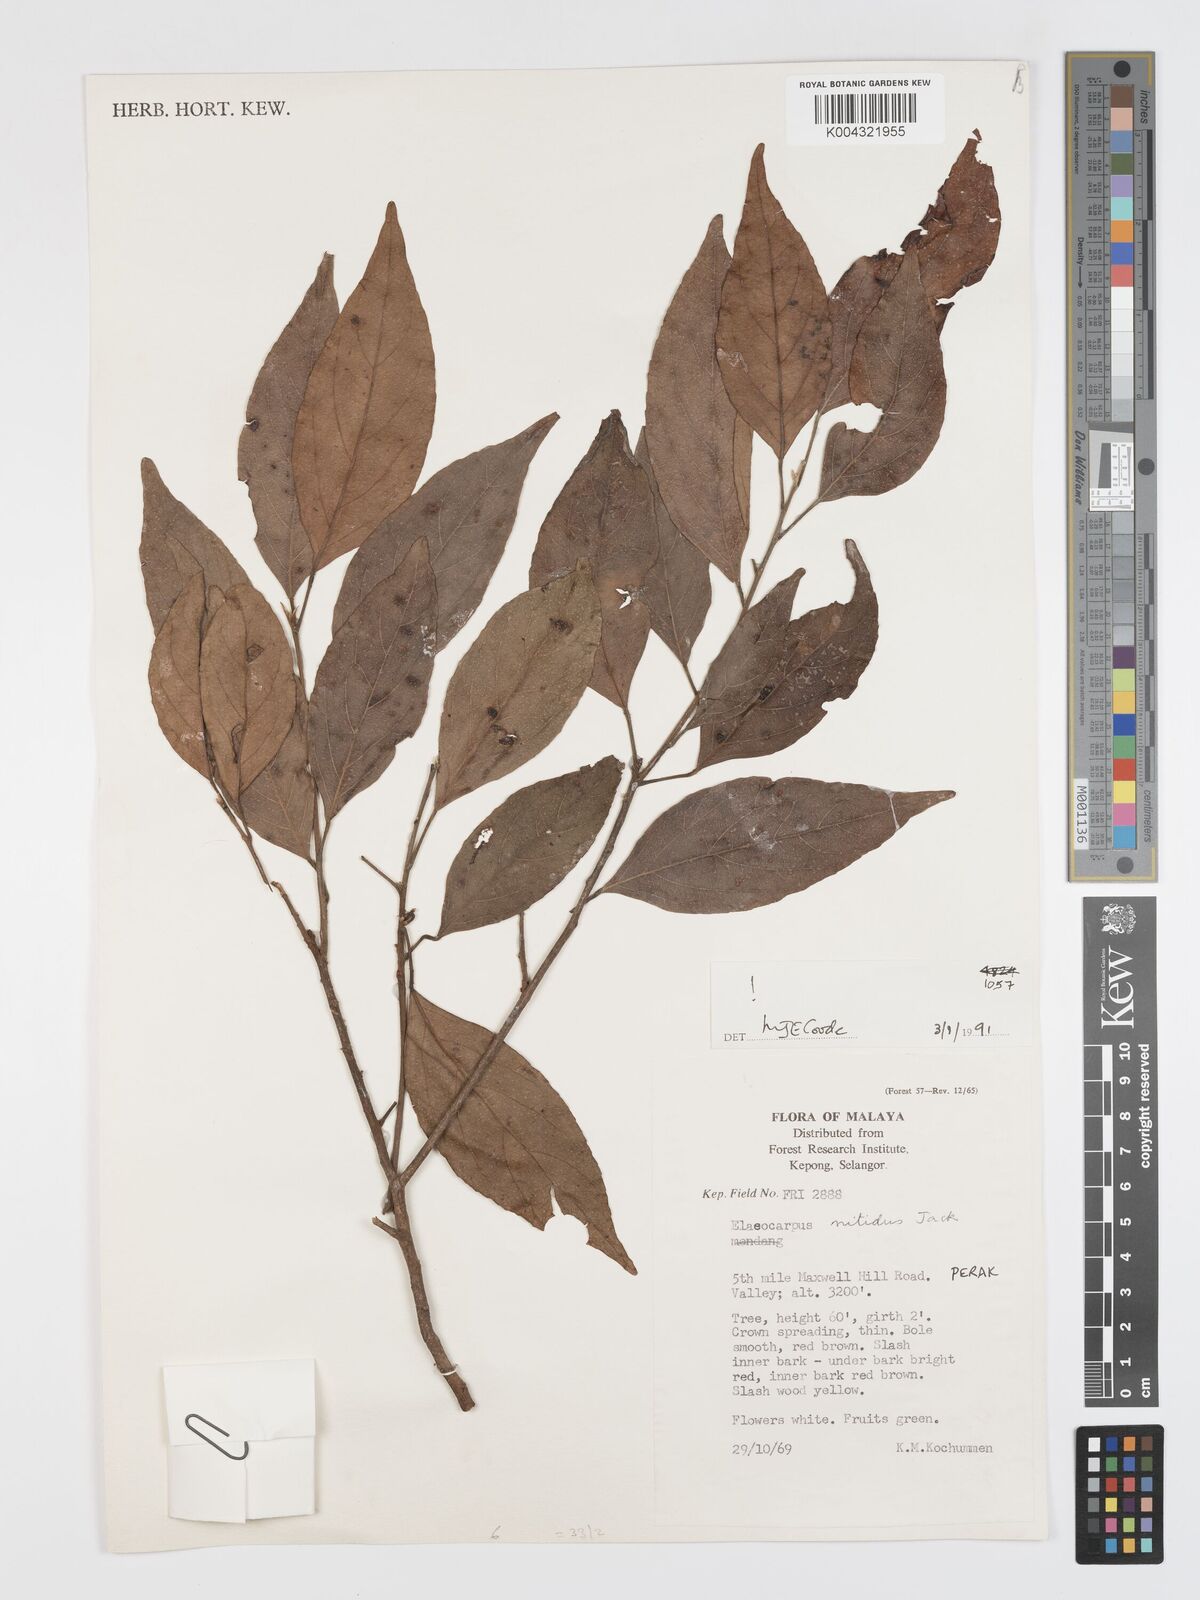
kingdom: Plantae
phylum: Tracheophyta
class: Magnoliopsida
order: Oxalidales
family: Elaeocarpaceae
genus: Elaeocarpus
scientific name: Elaeocarpus nitidus
